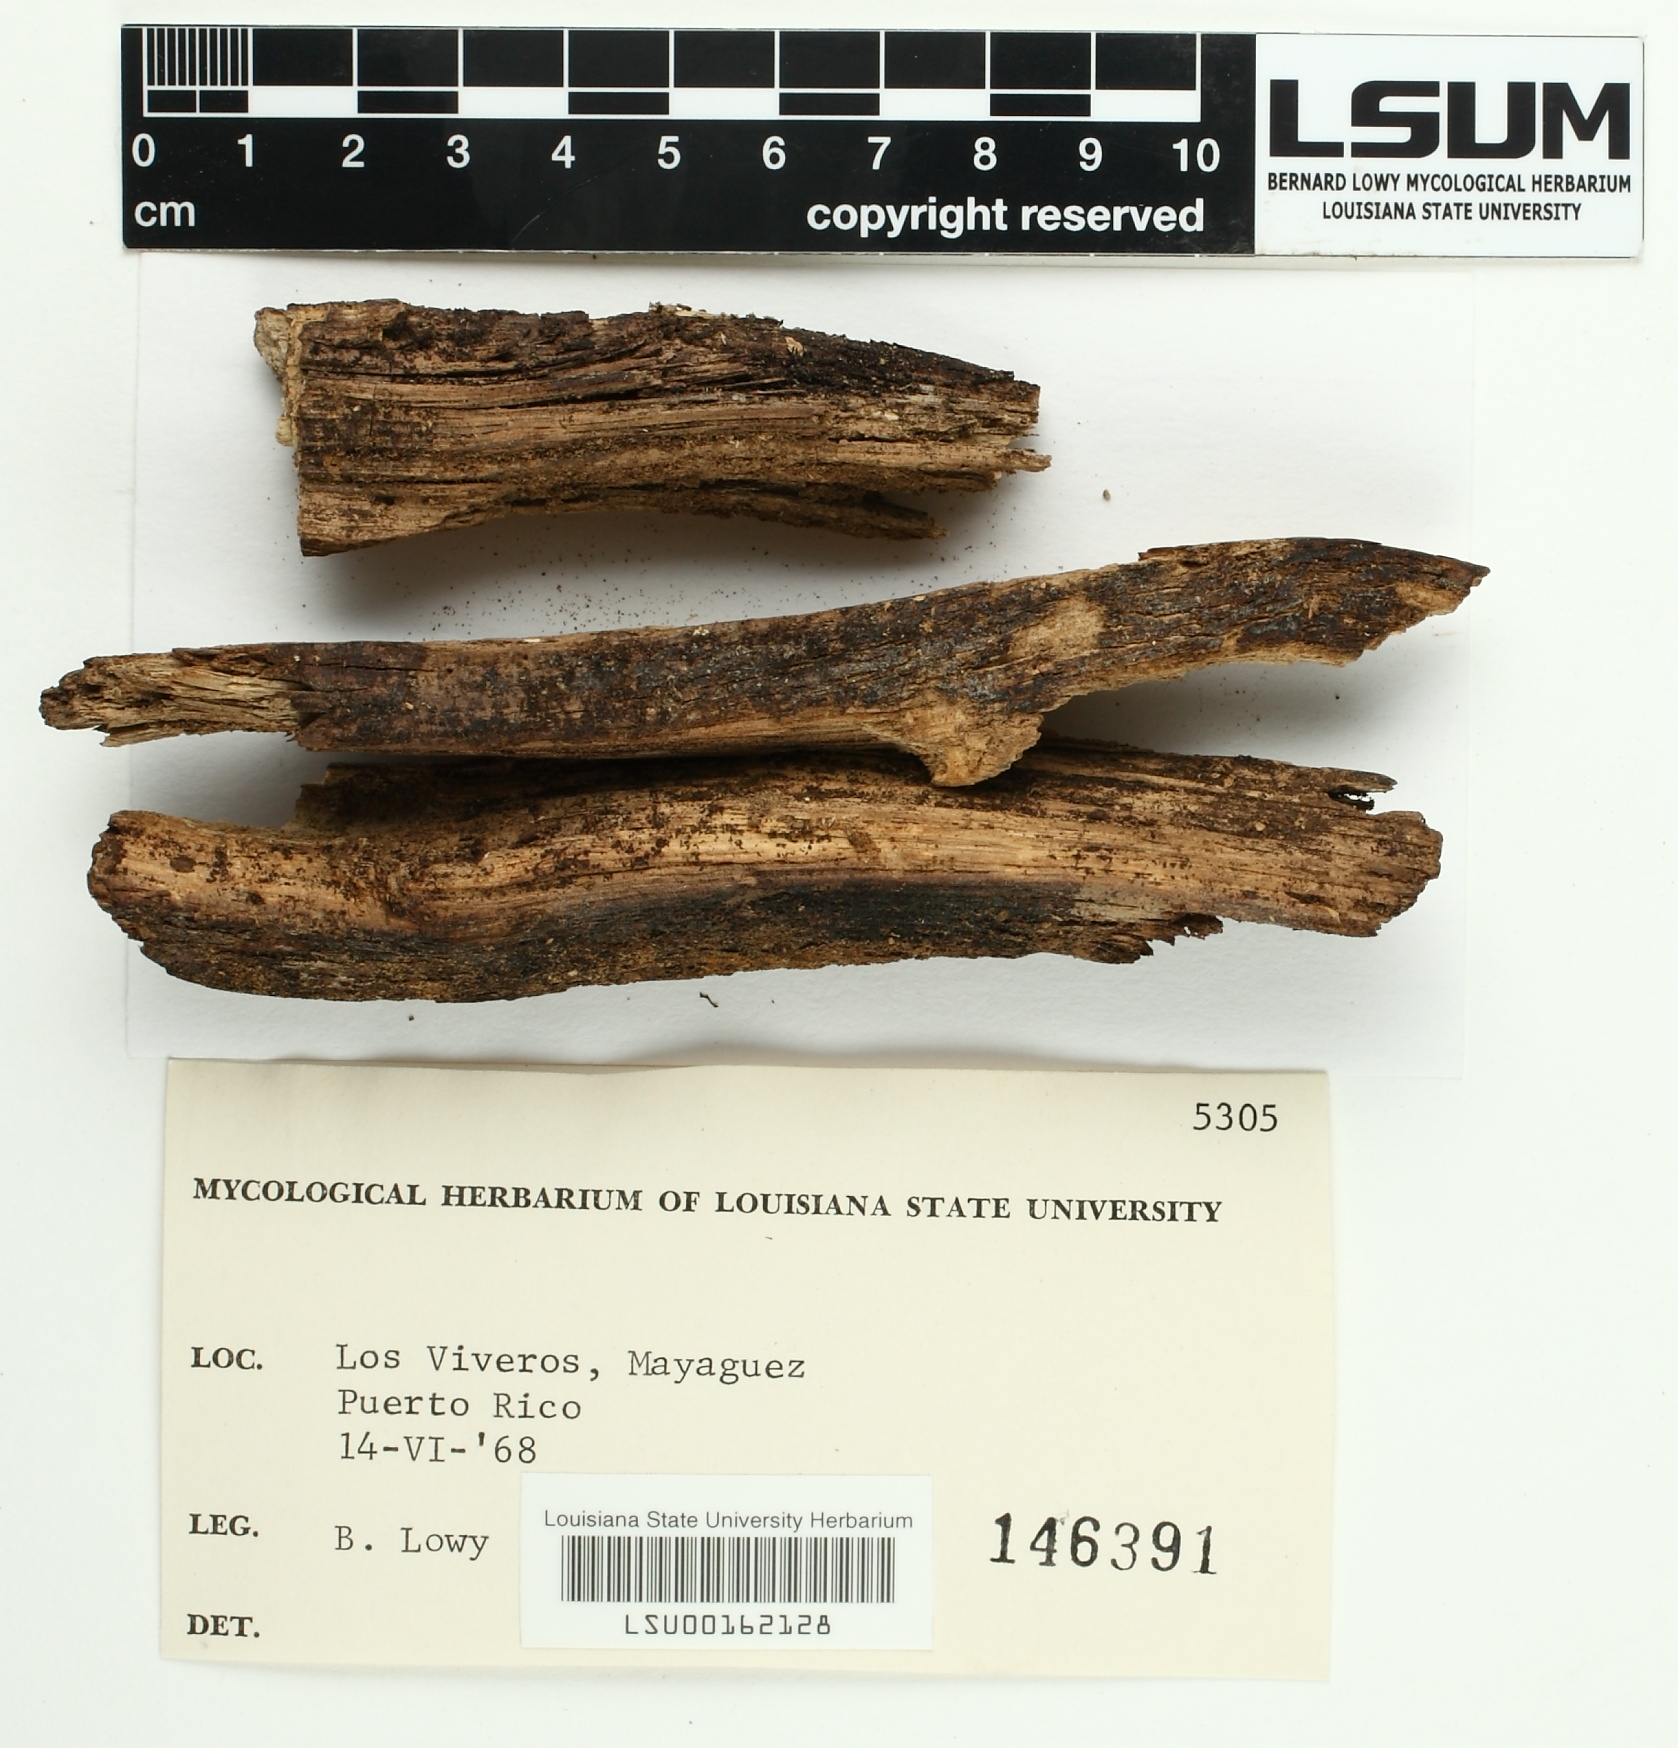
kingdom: Fungi
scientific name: Fungi
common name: Fungi
